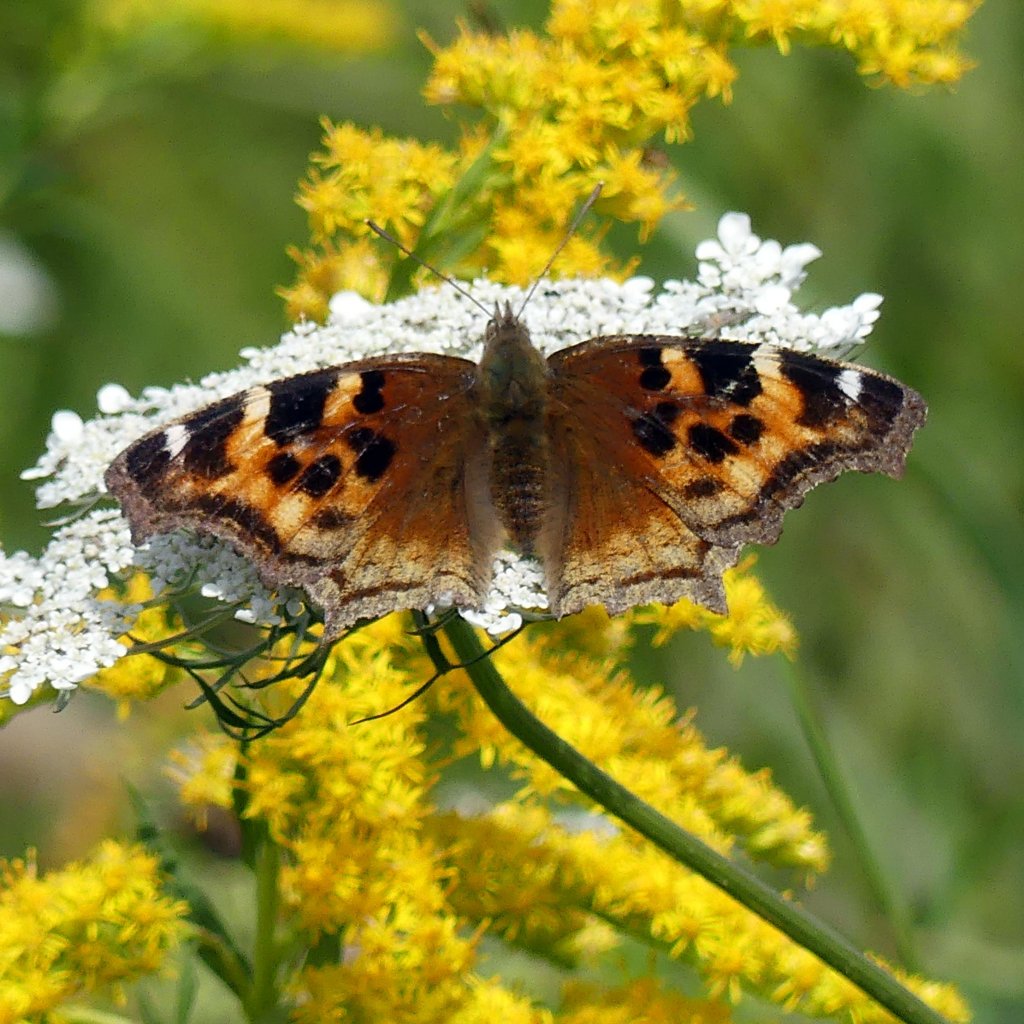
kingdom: Animalia
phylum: Arthropoda
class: Insecta
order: Lepidoptera
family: Nymphalidae
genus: Polygonia
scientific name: Polygonia vaualbum
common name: Compton Tortoiseshell
